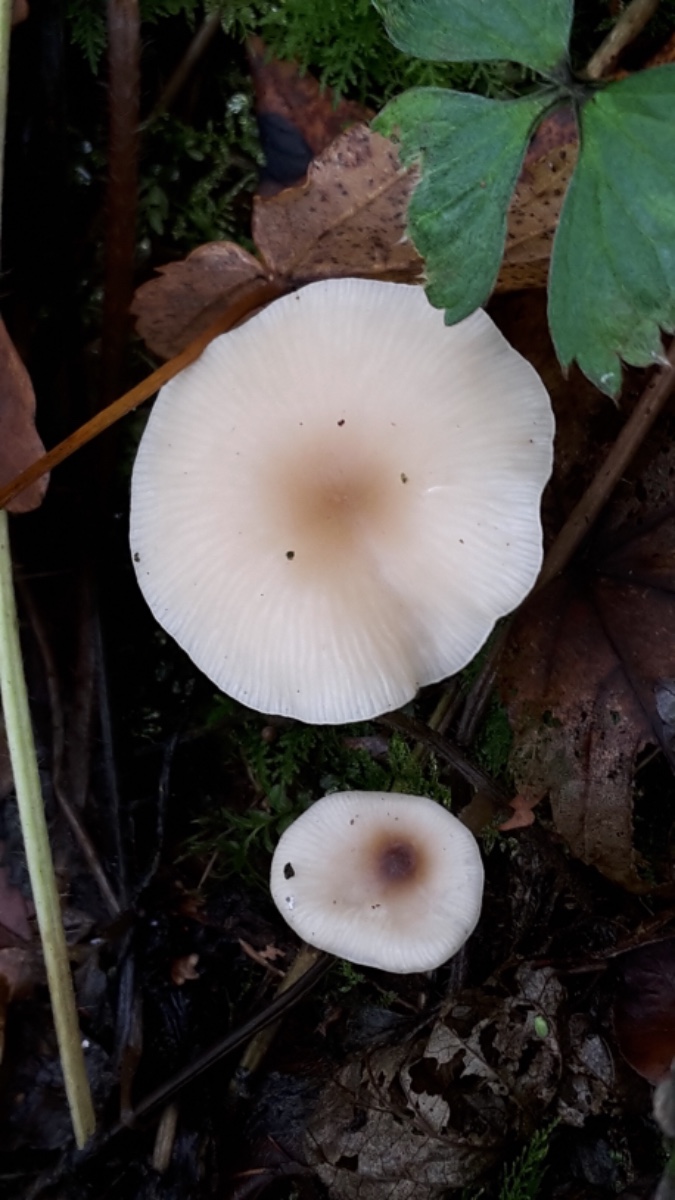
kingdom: Fungi
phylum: Basidiomycota
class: Agaricomycetes
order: Agaricales
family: Tricholomataceae
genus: Clitocybe
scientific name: Clitocybe fragrans
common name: vellugtende tragthat
